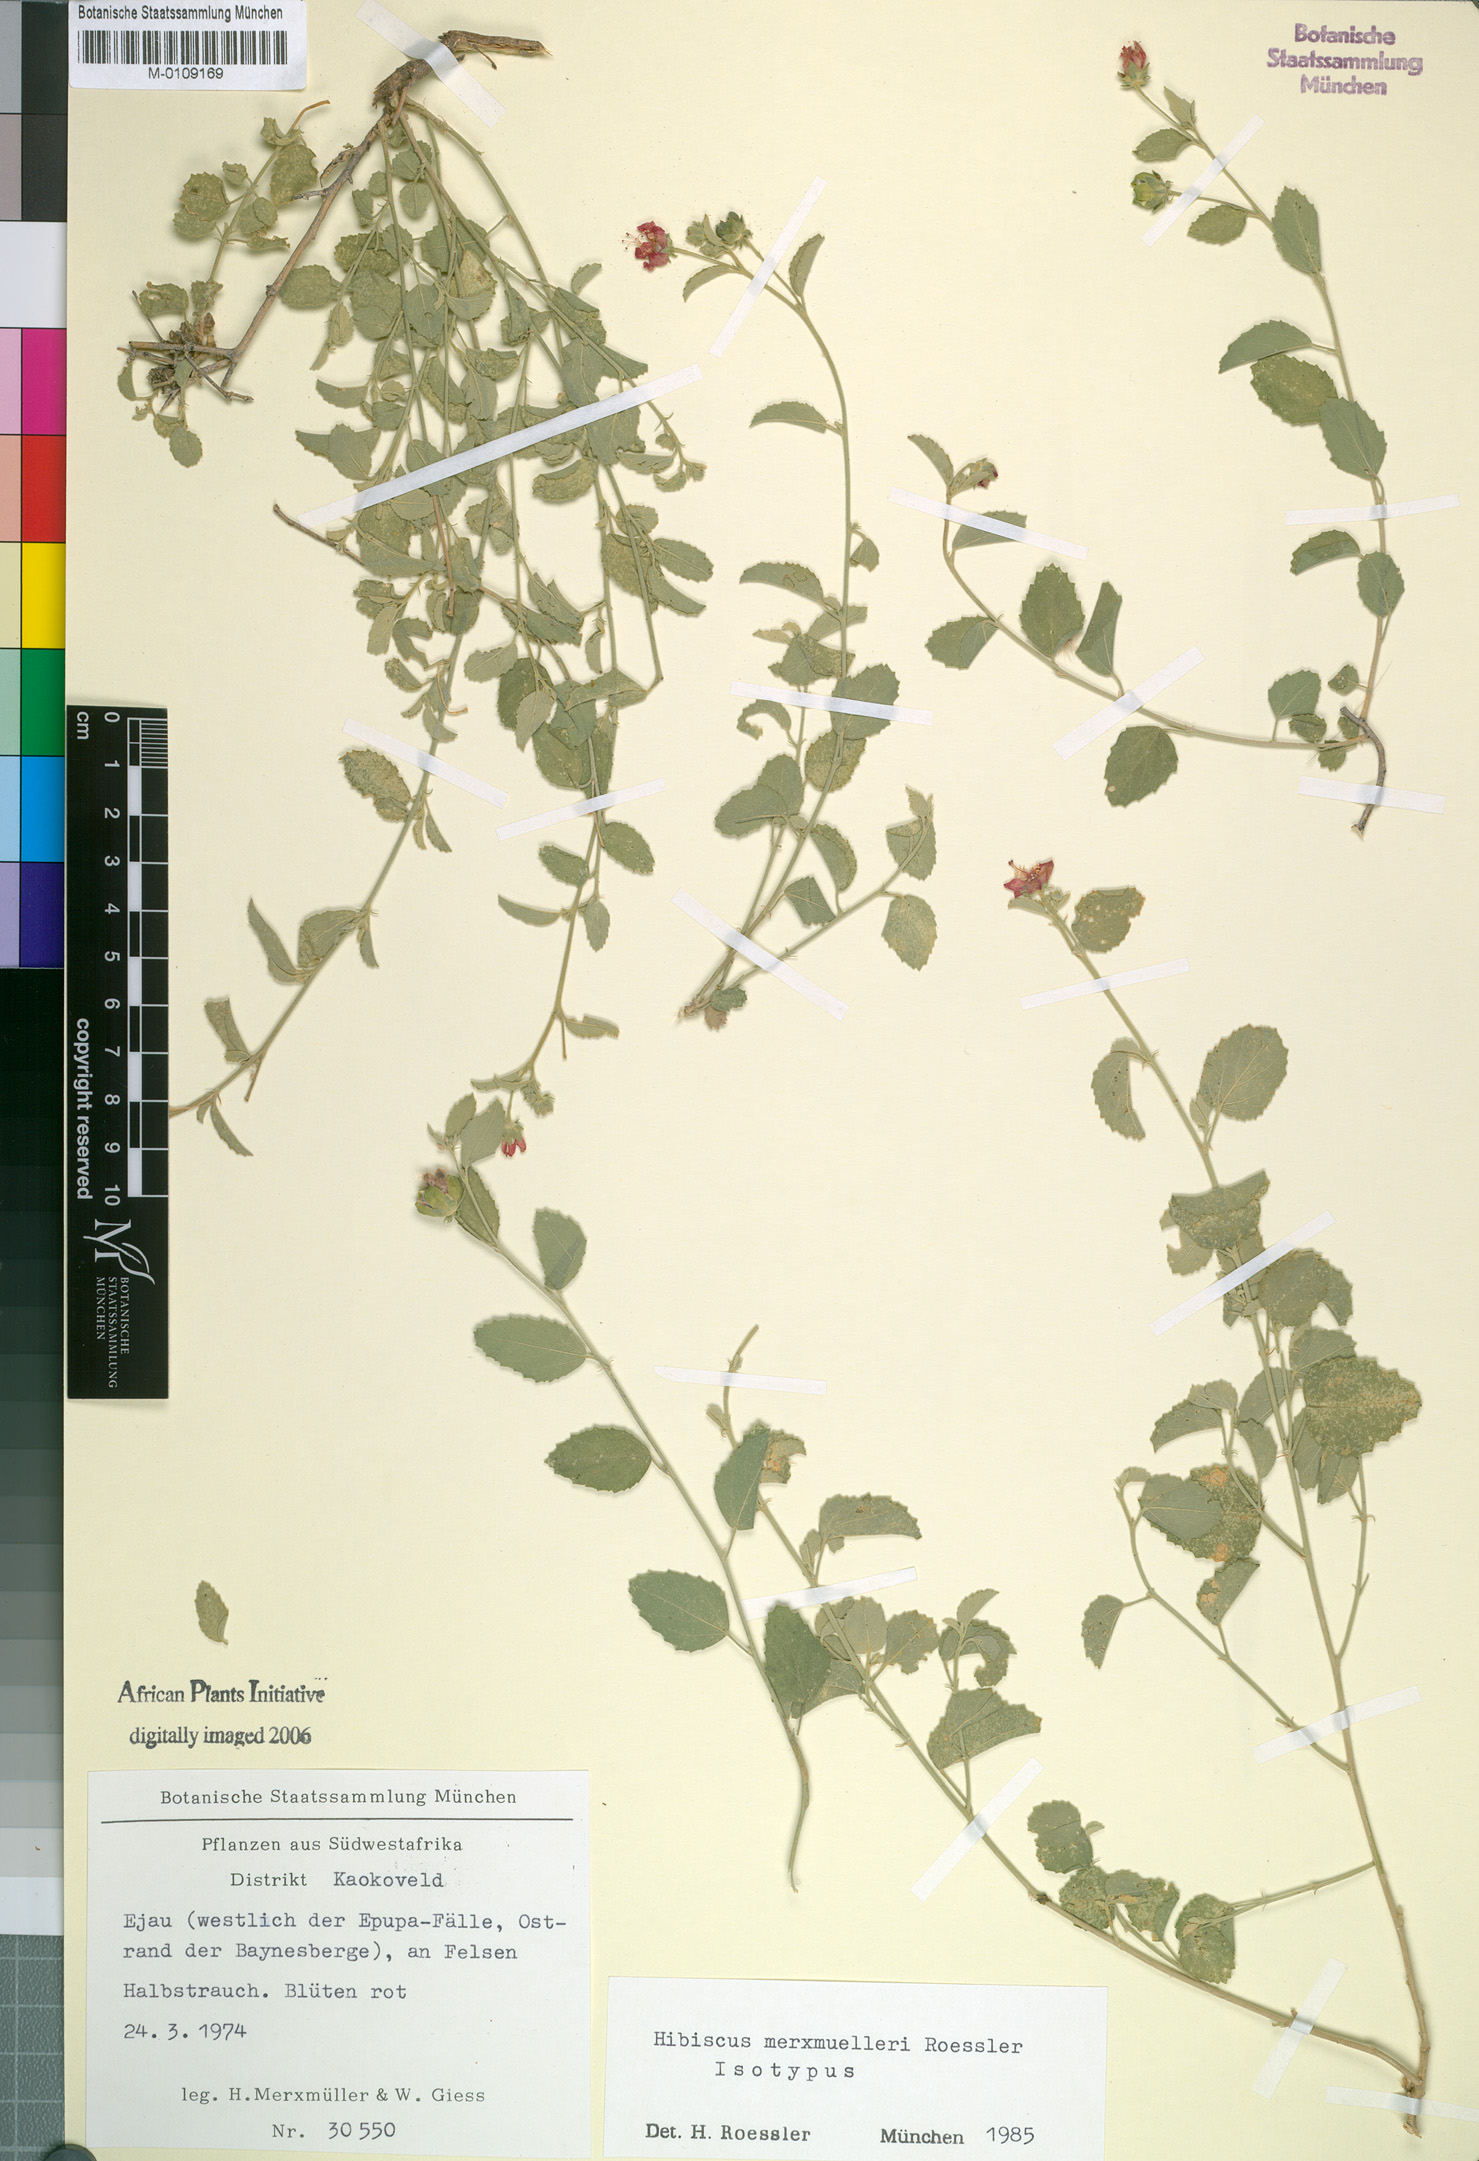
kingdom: Plantae
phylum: Tracheophyta
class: Magnoliopsida
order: Malvales
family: Malvaceae
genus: Hibiscus
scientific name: Hibiscus merxmuelleri
